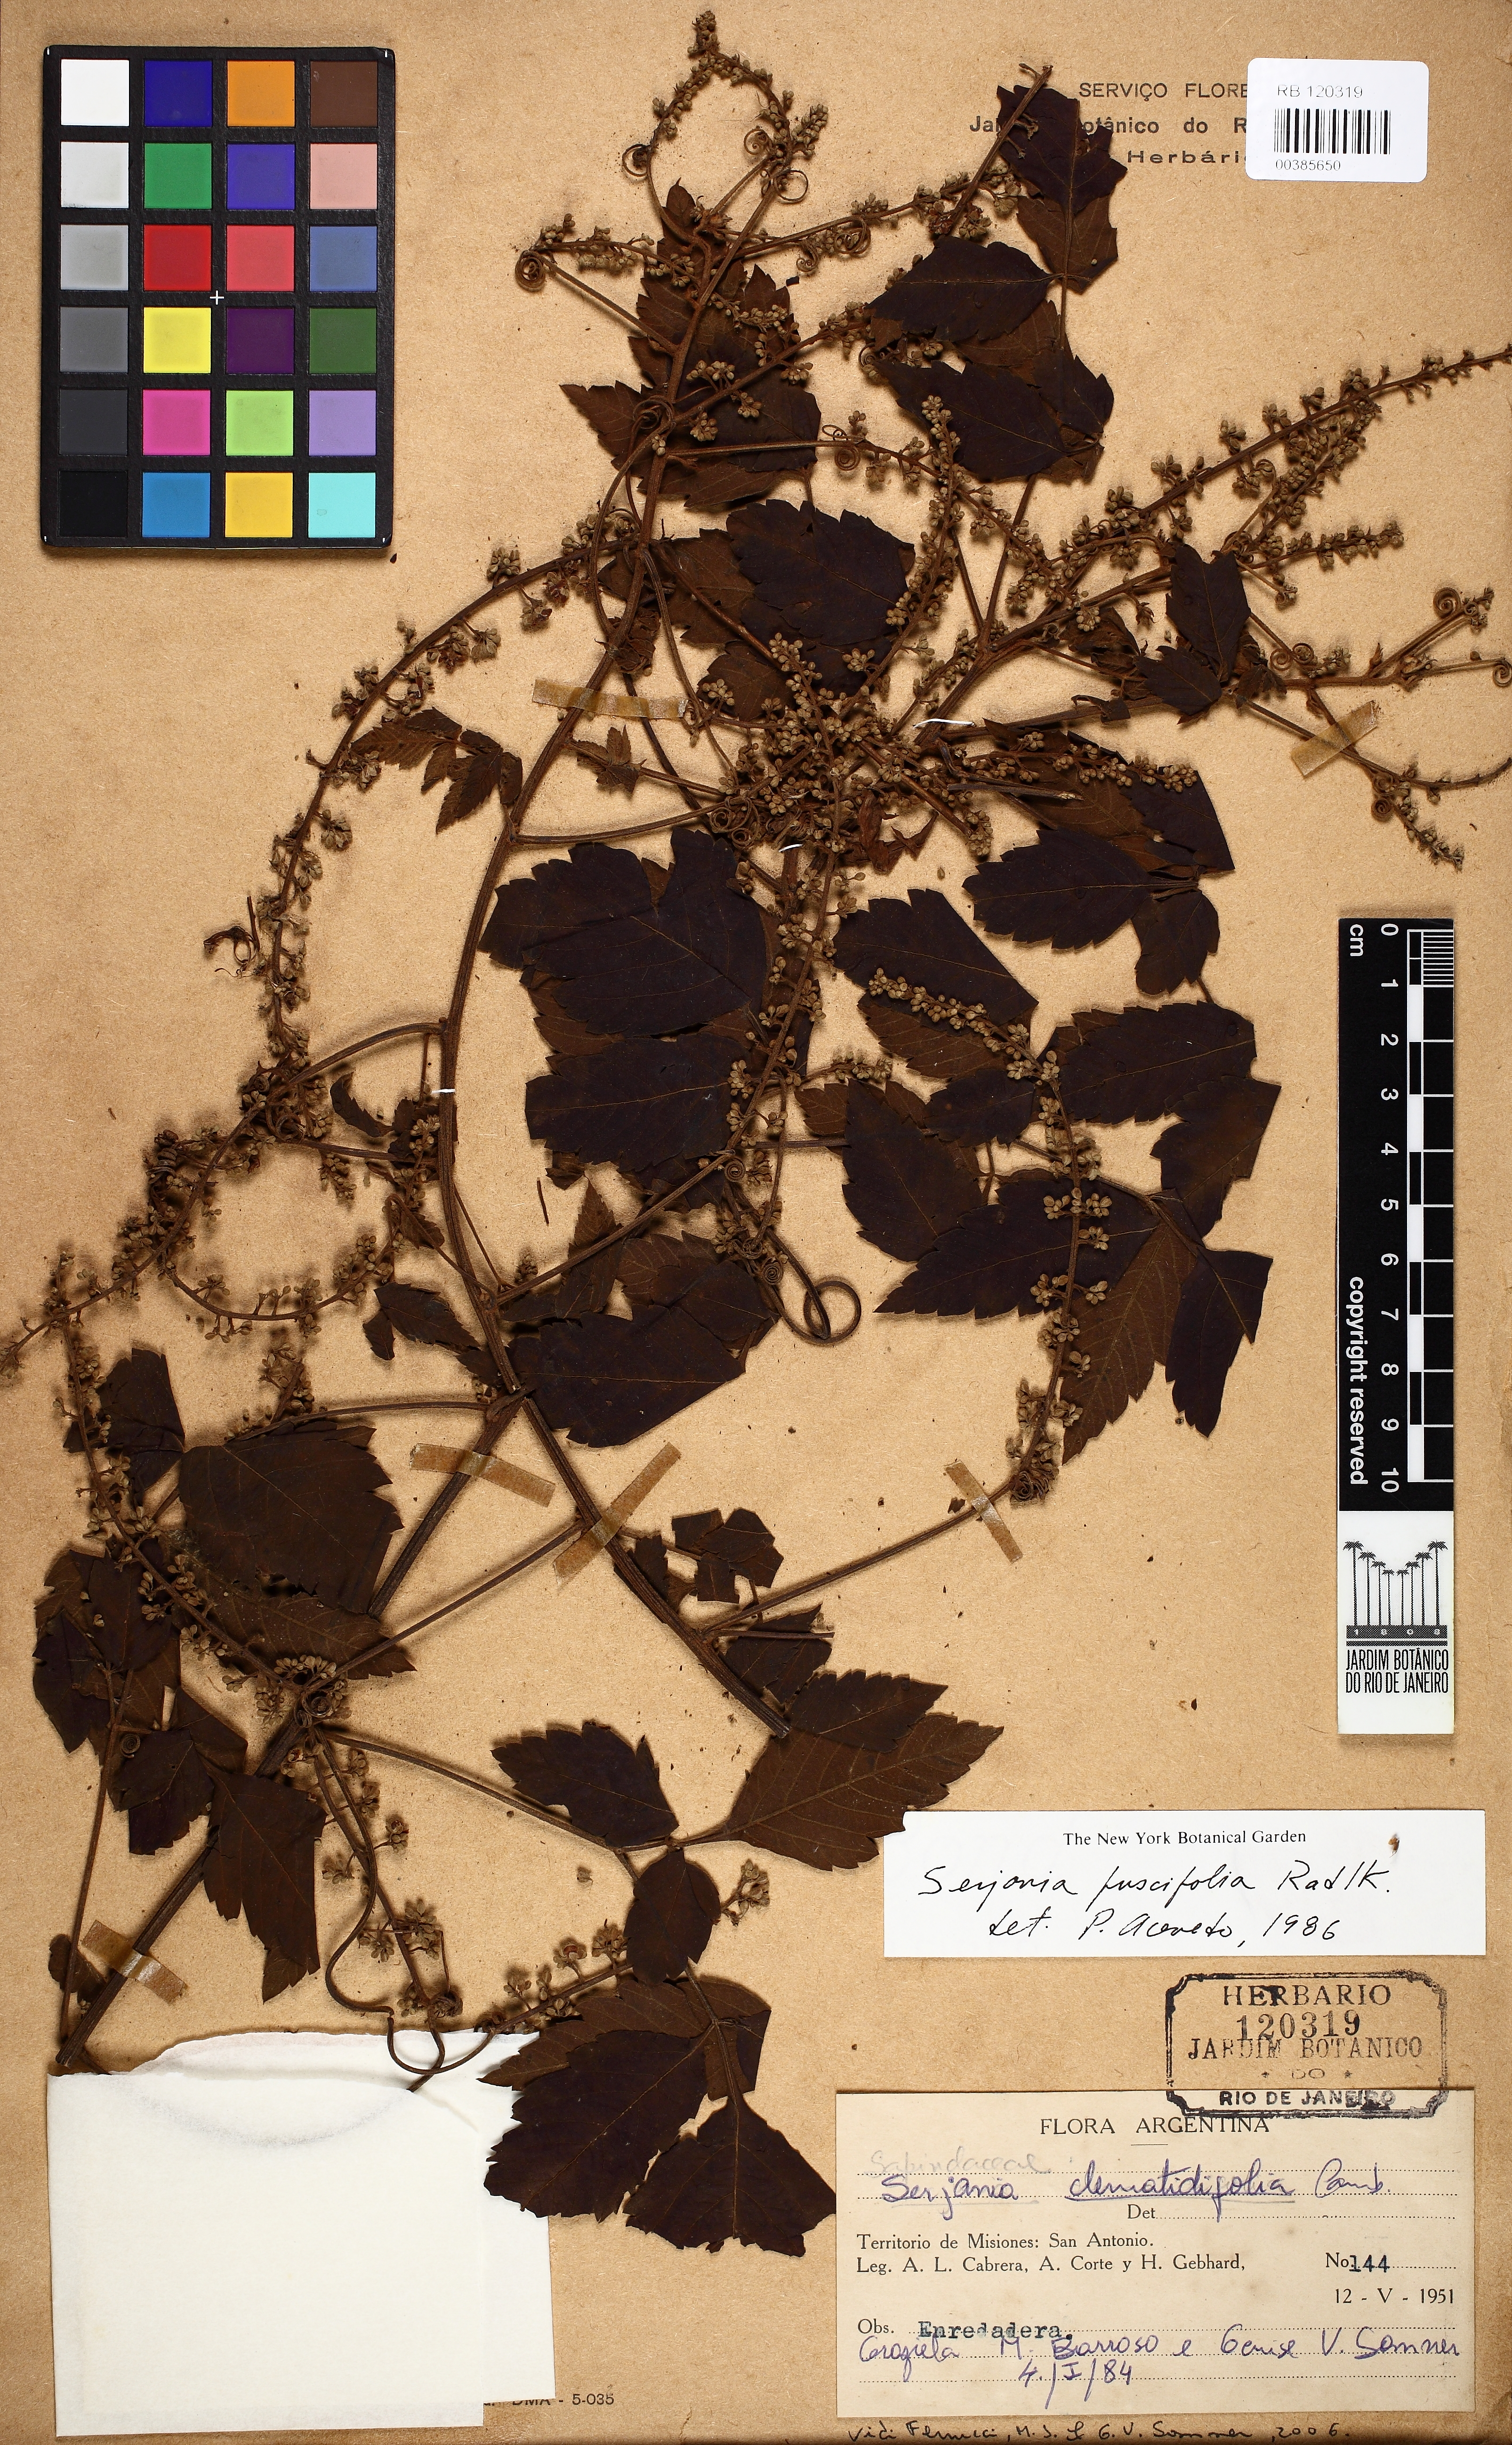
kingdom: Plantae
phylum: Tracheophyta
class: Magnoliopsida
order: Sapindales
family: Sapindaceae
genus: Serjania
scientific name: Serjania fuscifolia
